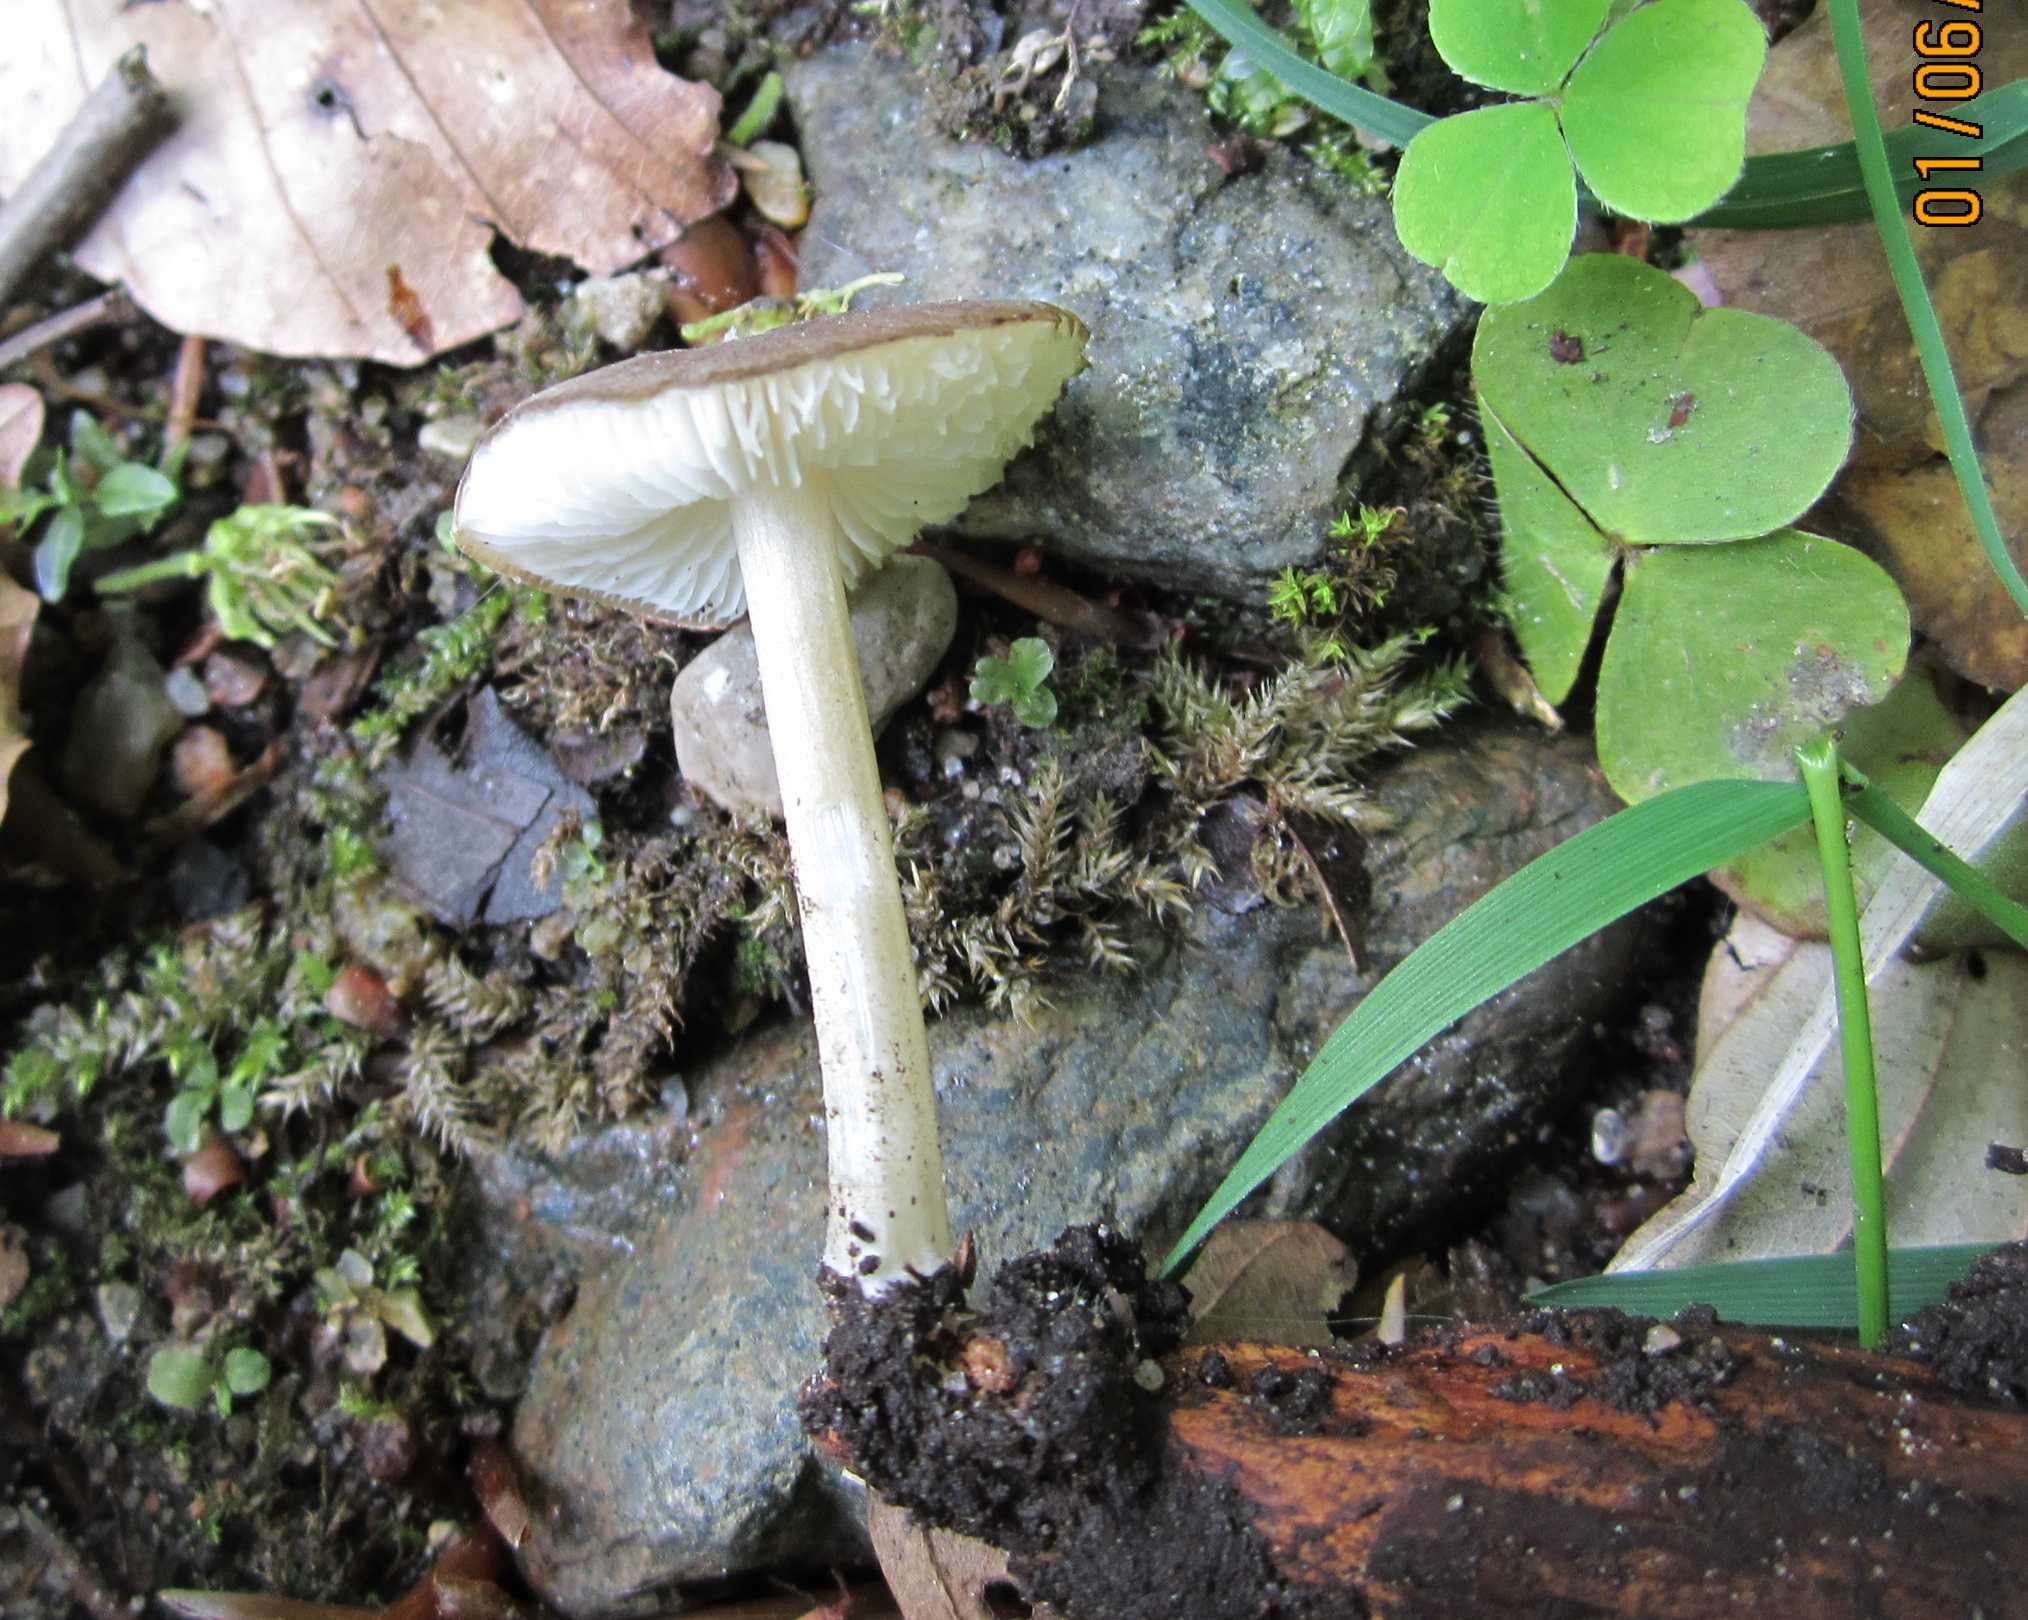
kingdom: Fungi
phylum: Basidiomycota
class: Agaricomycetes
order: Agaricales
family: Porotheleaceae
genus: Hydropodia
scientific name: Hydropodia subalpina
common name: vår-fnugfod
